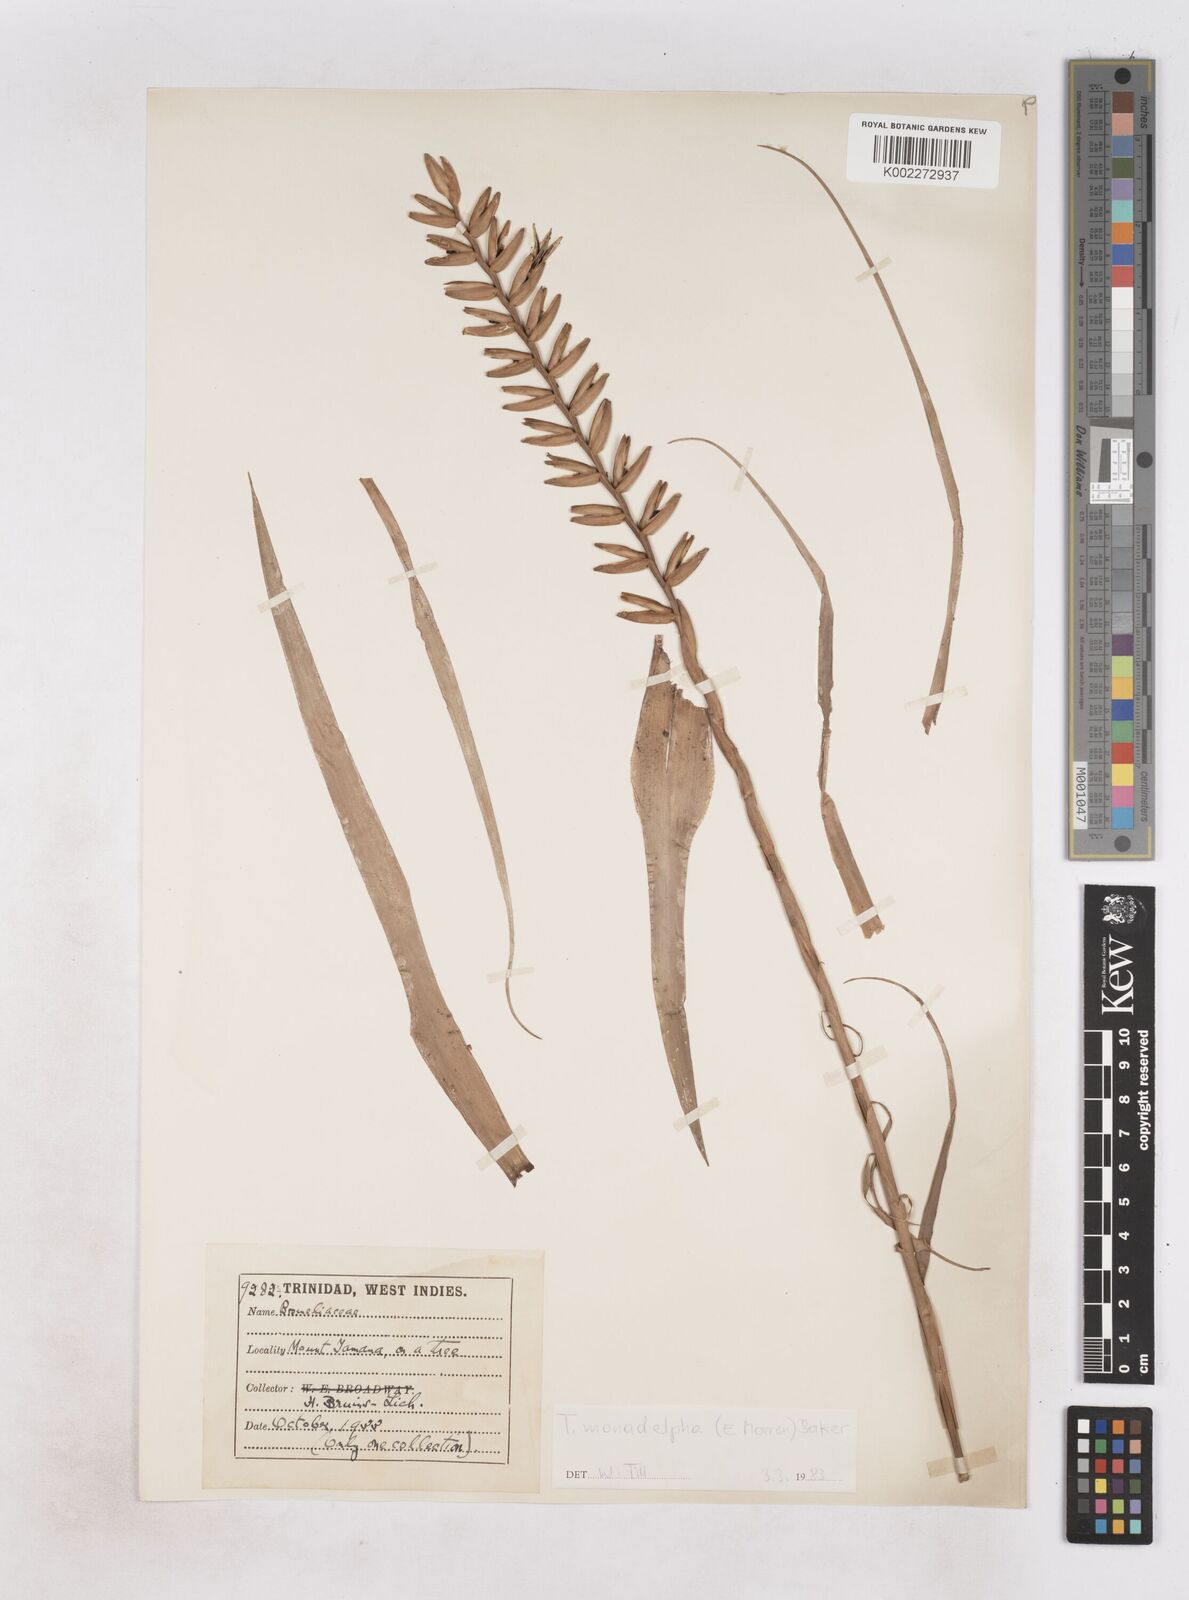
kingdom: Plantae
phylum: Tracheophyta
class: Liliopsida
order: Poales
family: Bromeliaceae
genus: Lemeltonia
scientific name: Lemeltonia monadelpha
